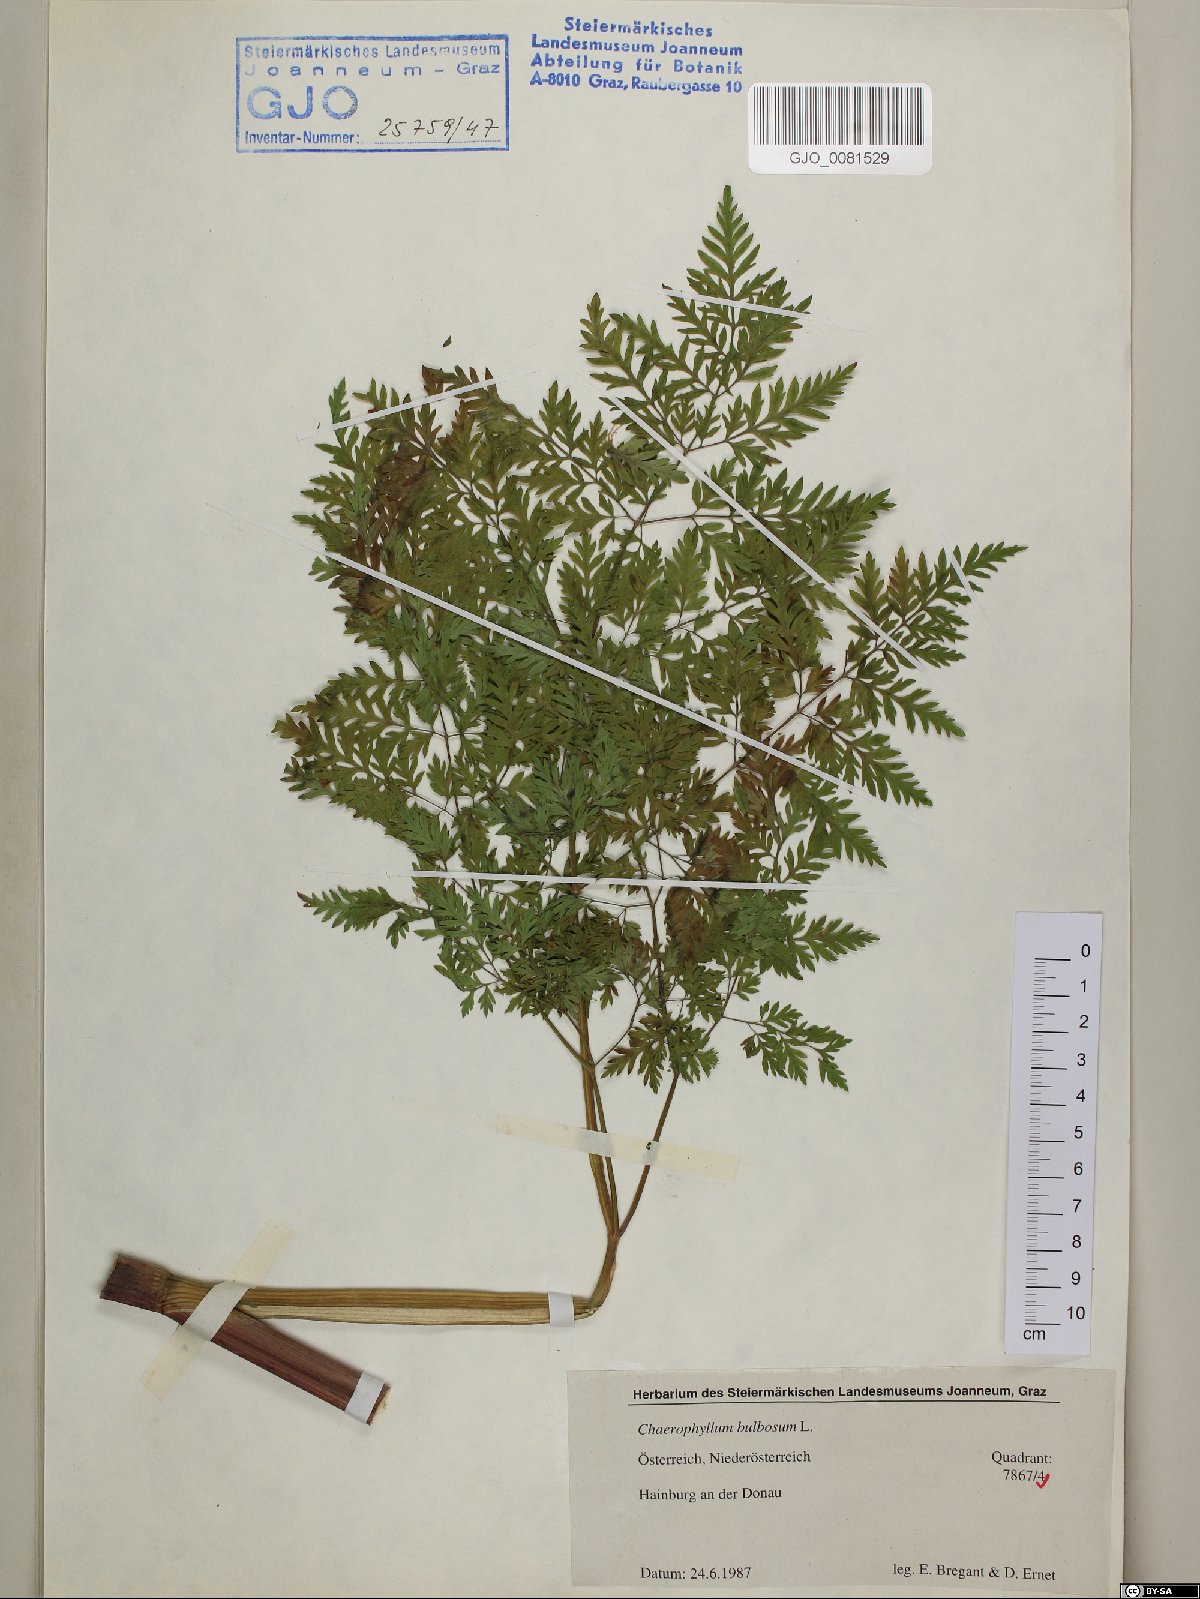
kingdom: Plantae
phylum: Tracheophyta
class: Magnoliopsida
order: Apiales
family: Apiaceae
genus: Chaerophyllum
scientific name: Chaerophyllum bulbosum
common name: Bulbous chervil
